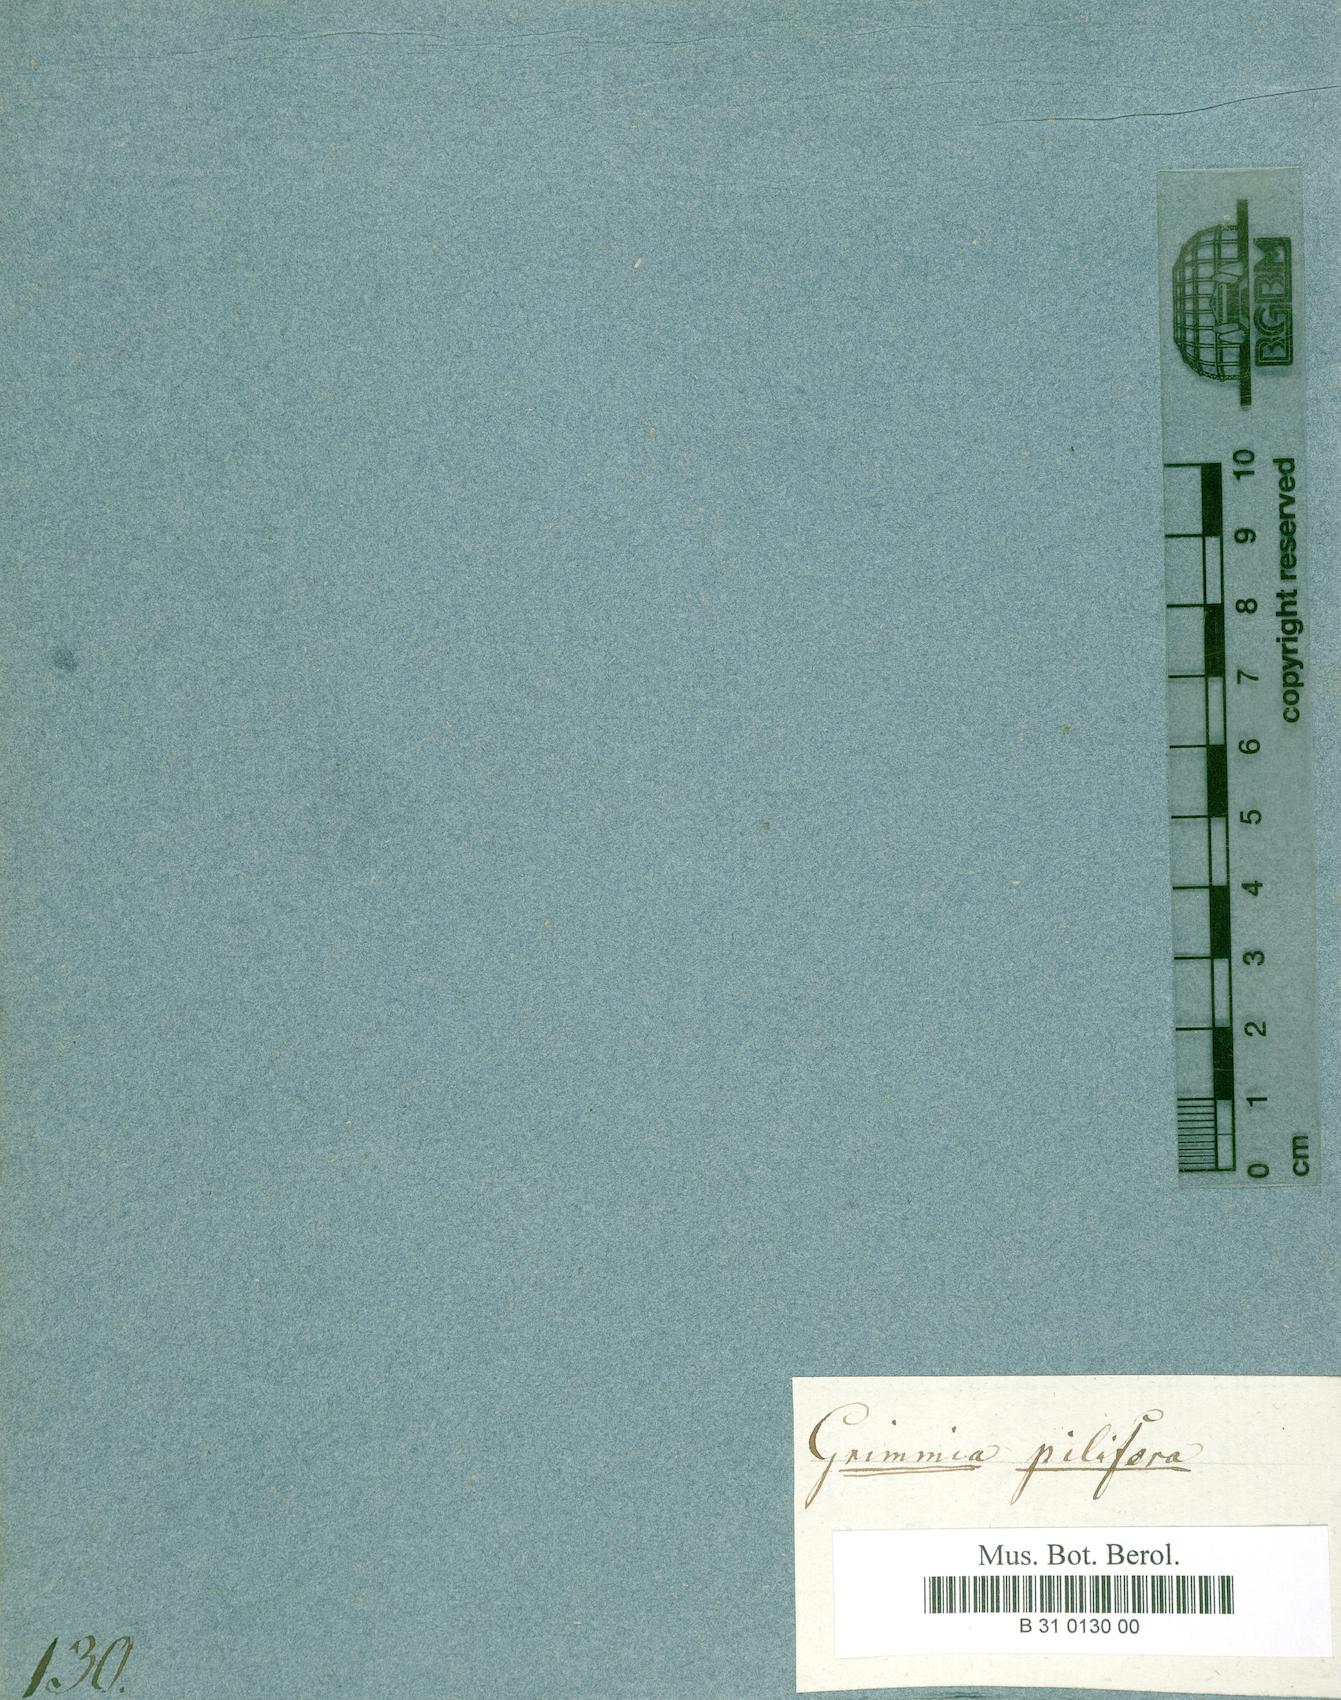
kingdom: Plantae
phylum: Bryophyta
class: Bryopsida
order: Grimmiales
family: Grimmiaceae
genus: Grimmia
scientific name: Grimmia pilifera
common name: Hair grimmia
